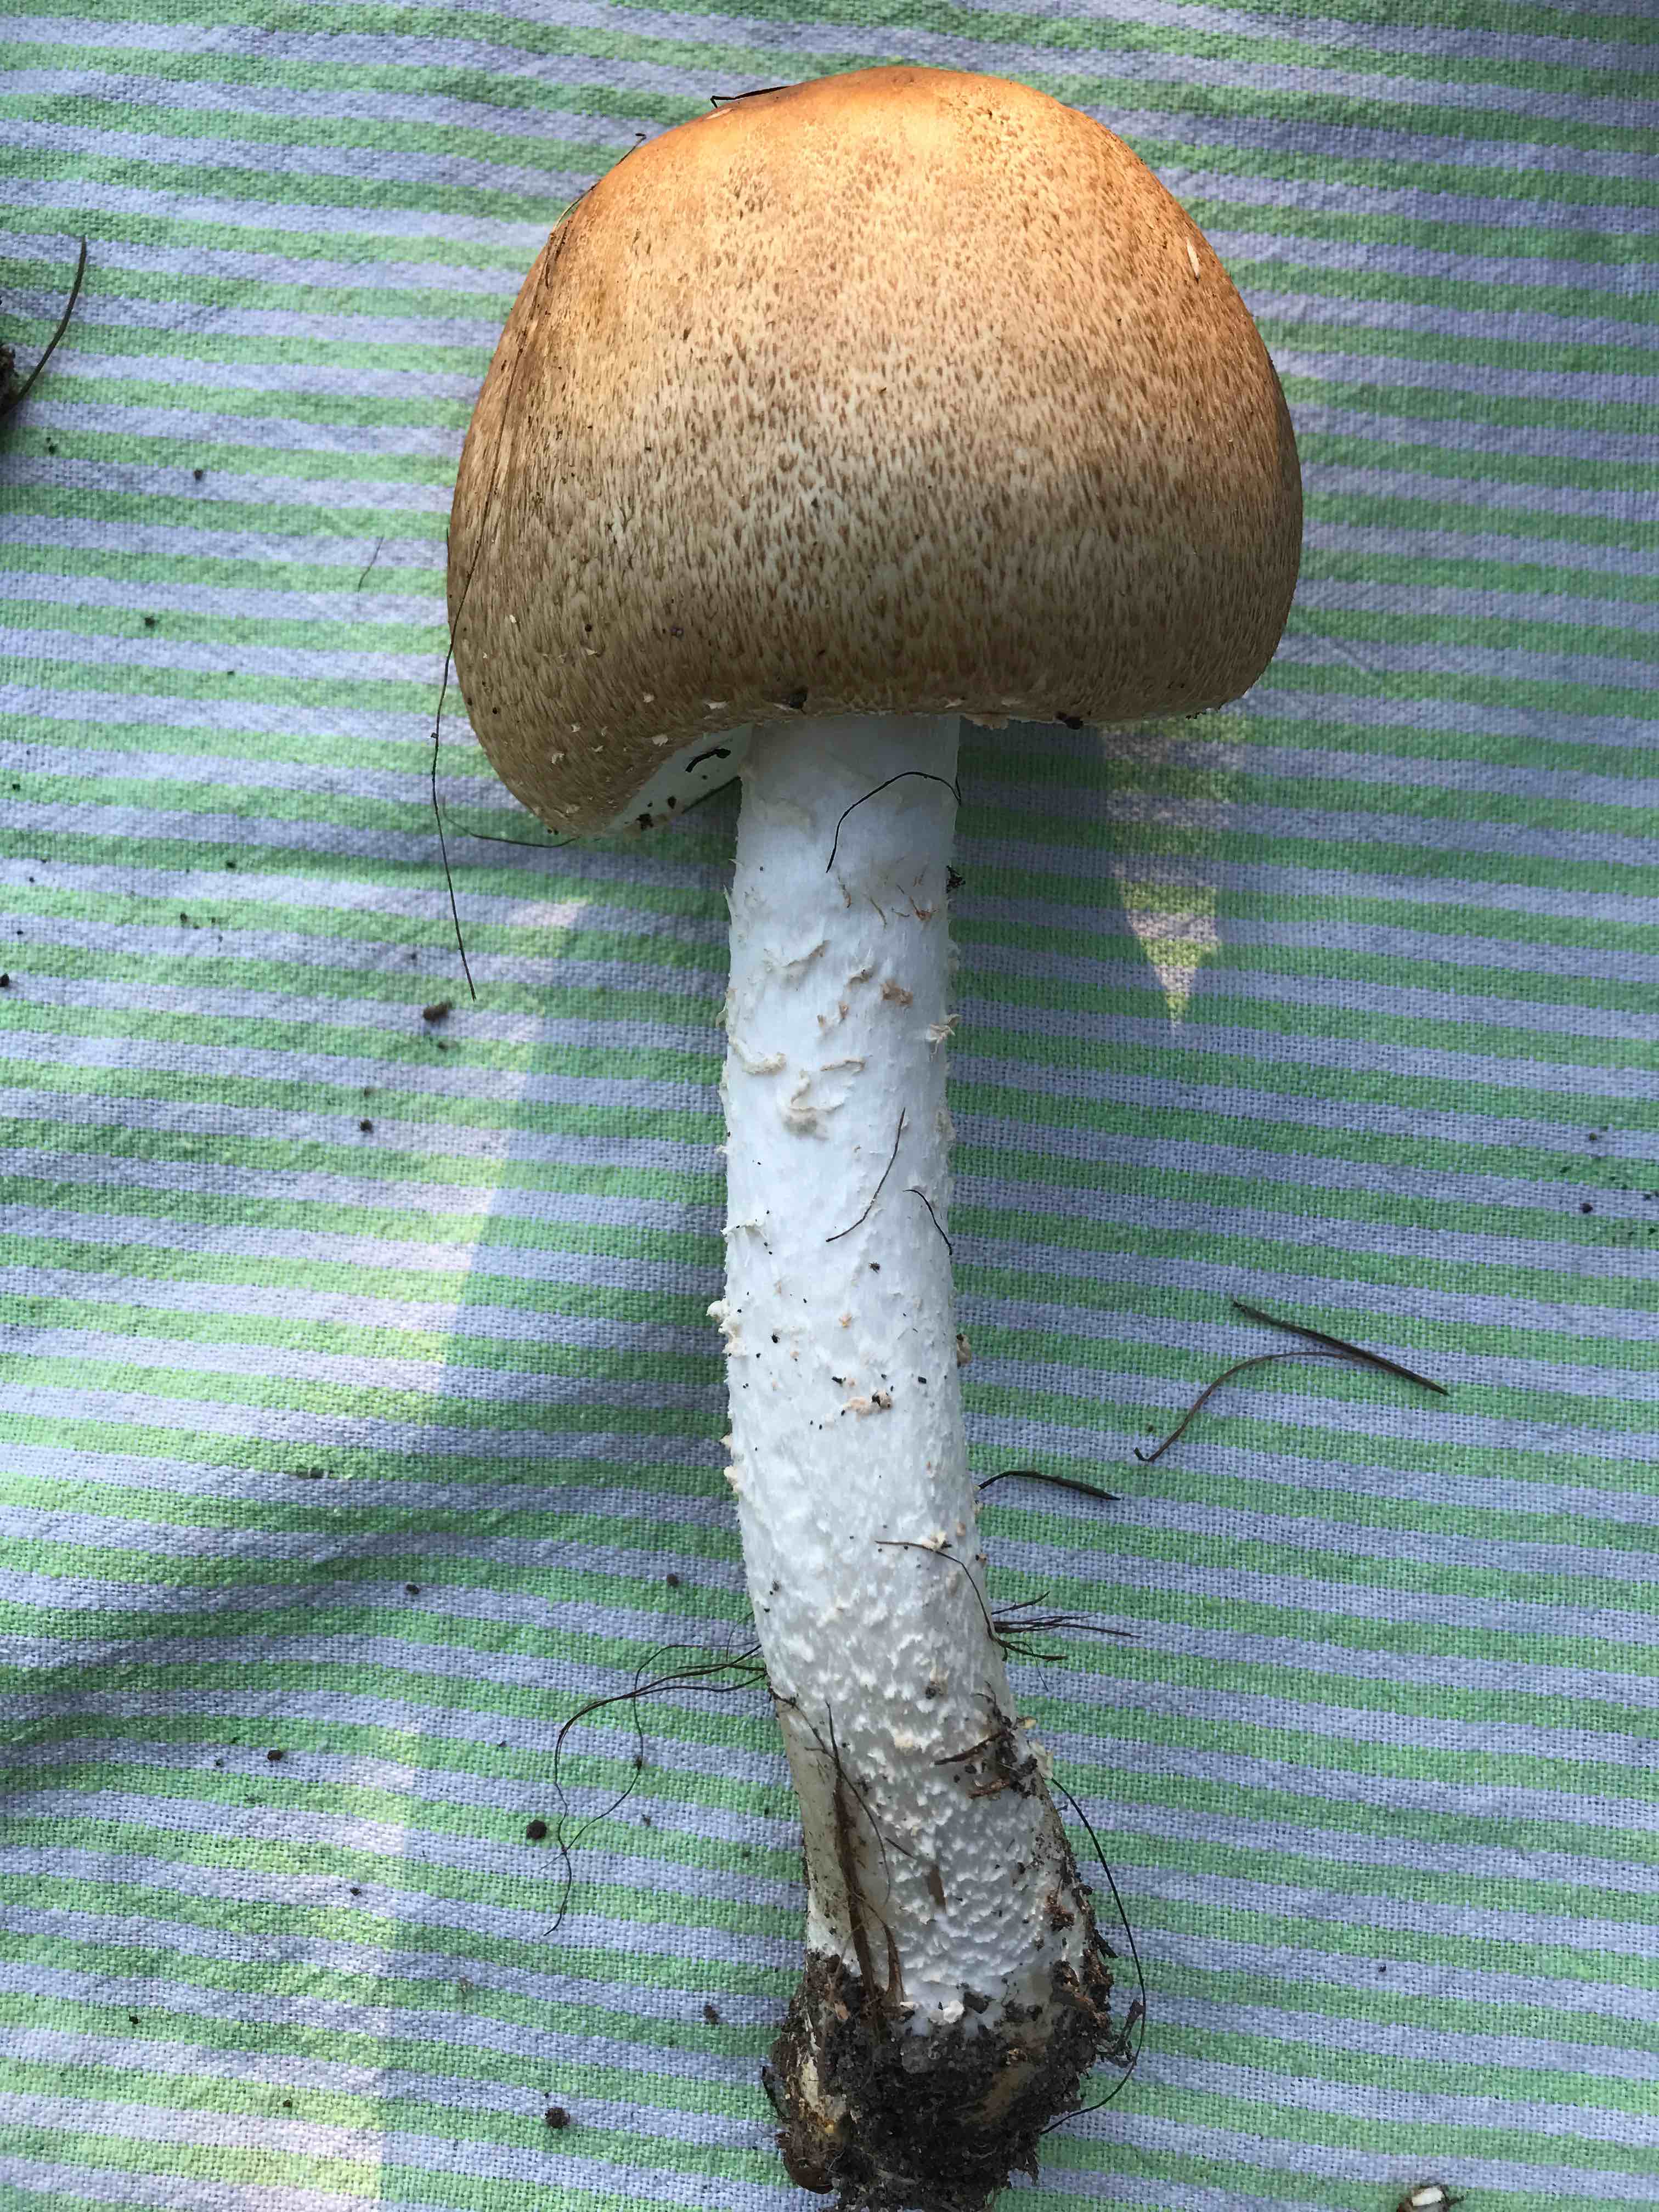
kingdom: Fungi
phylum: Basidiomycota
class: Agaricomycetes
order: Agaricales
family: Agaricaceae
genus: Agaricus
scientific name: Agaricus
